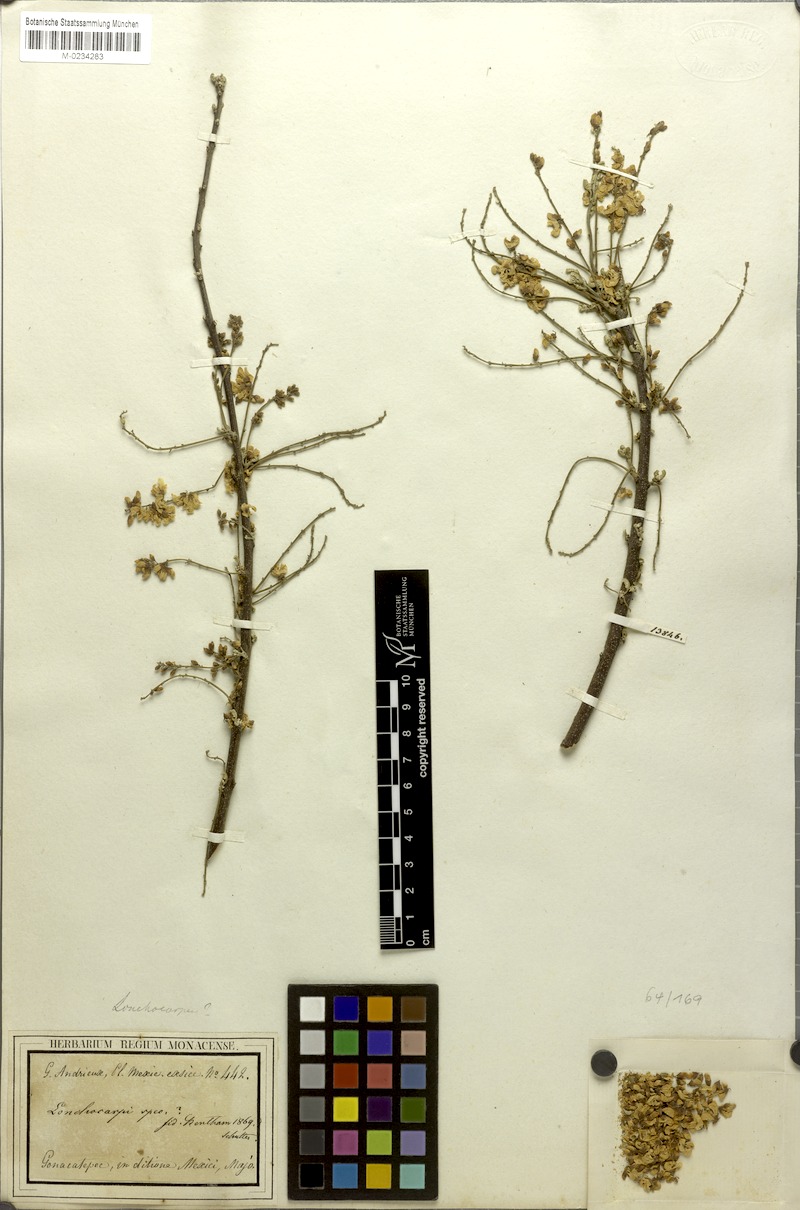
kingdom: Plantae
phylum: Tracheophyta
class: Magnoliopsida
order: Fabales
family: Fabaceae
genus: Lonchocarpus
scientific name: Lonchocarpus
